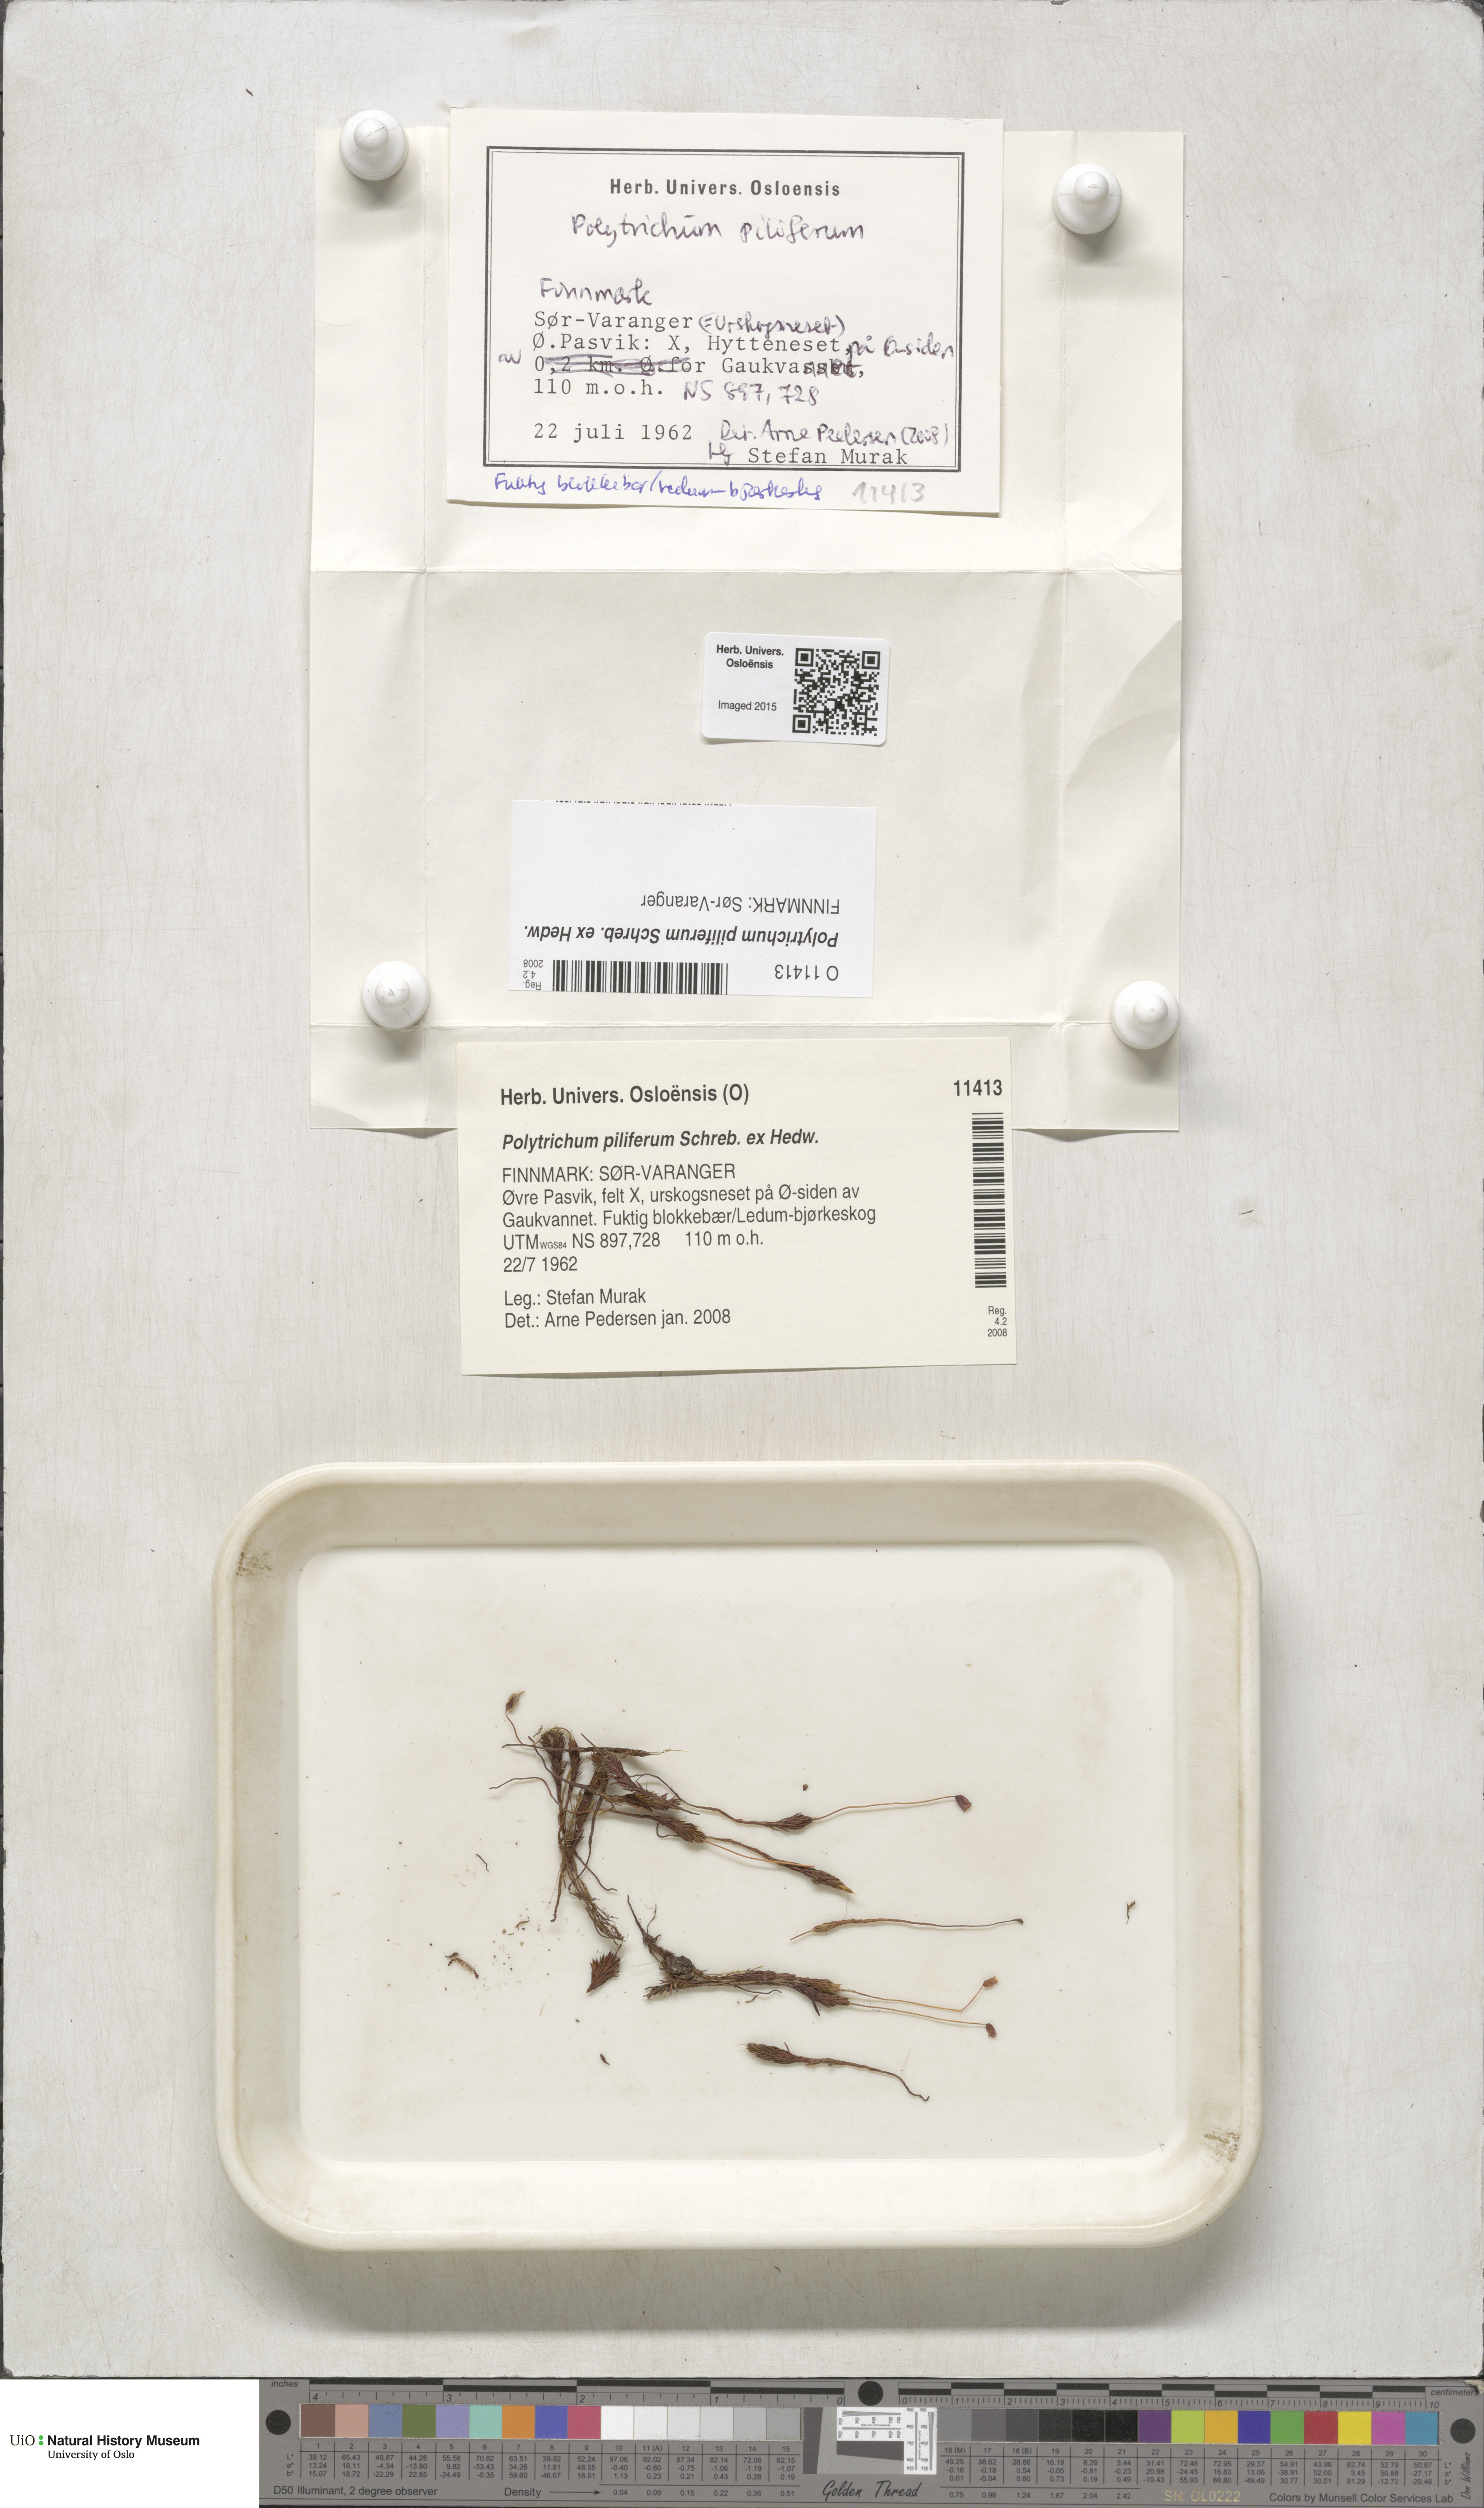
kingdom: Plantae
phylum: Bryophyta
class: Polytrichopsida
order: Polytrichales
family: Polytrichaceae
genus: Polytrichum
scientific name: Polytrichum piliferum
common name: Bristly haircap
